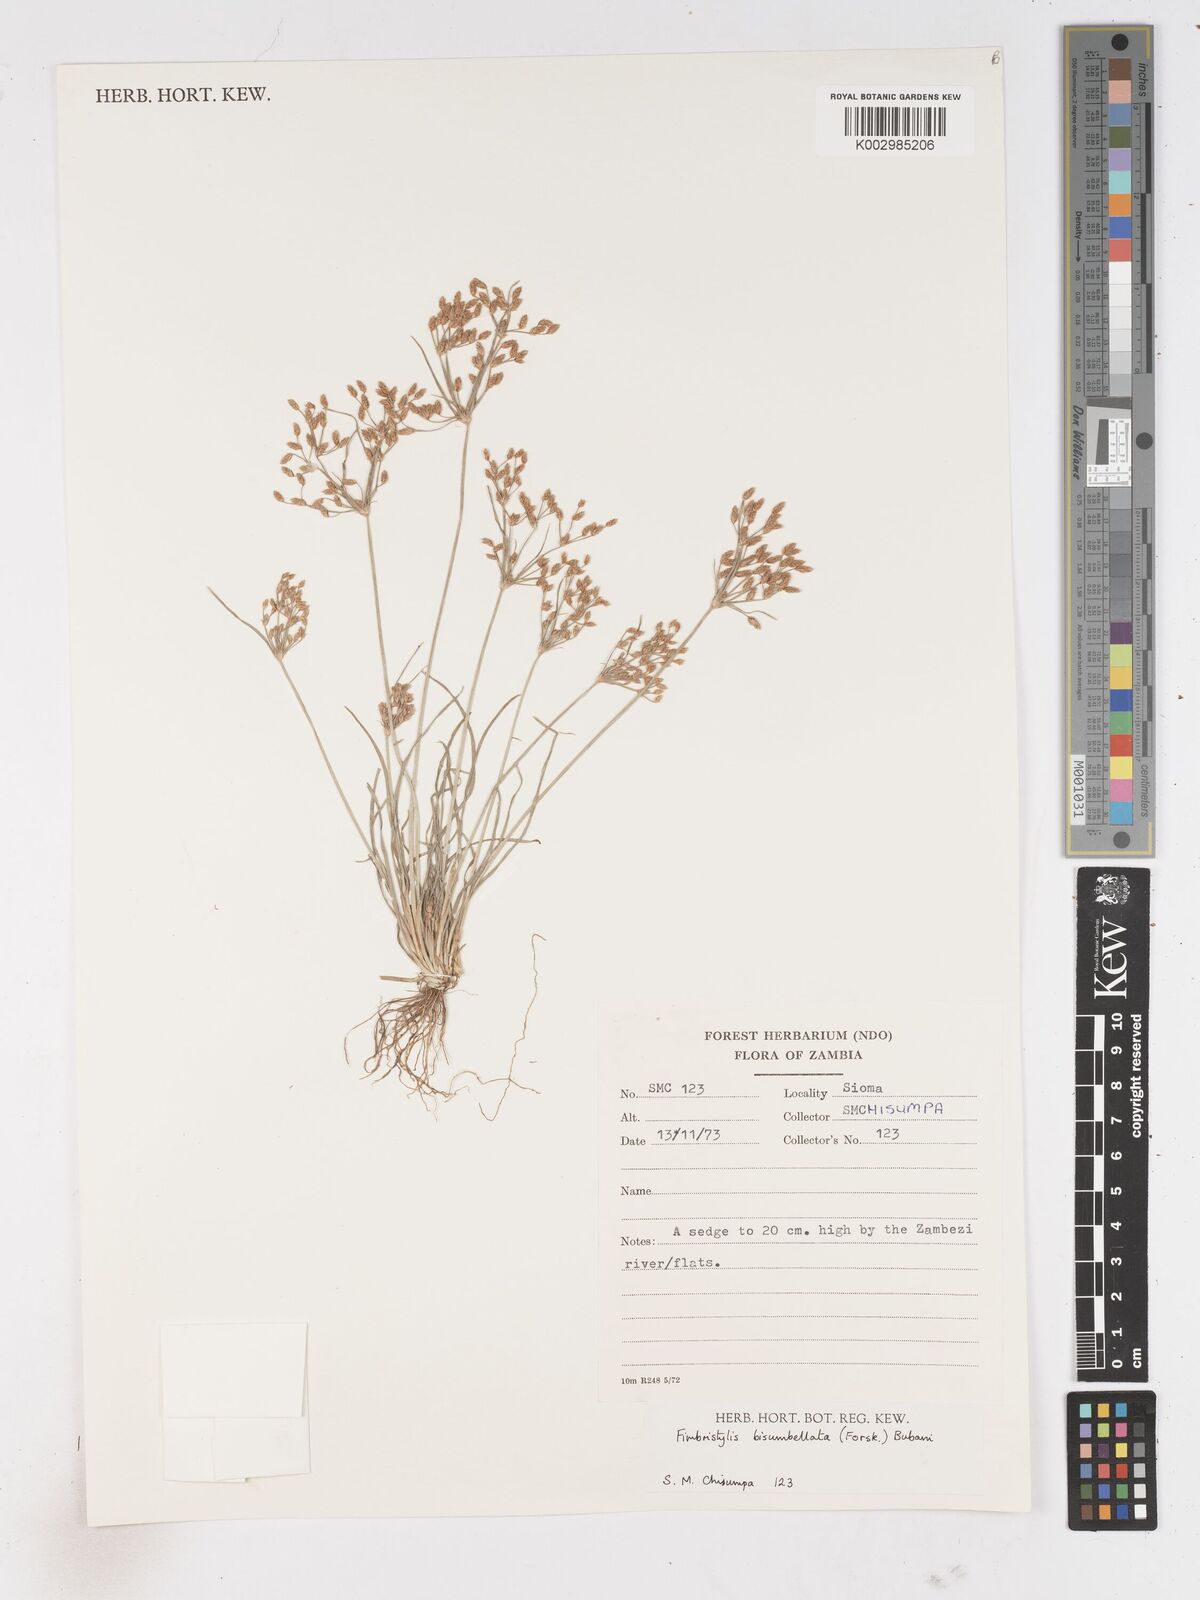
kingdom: Plantae
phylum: Tracheophyta
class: Liliopsida
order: Poales
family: Cyperaceae
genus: Fimbristylis
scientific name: Fimbristylis bisumbellata
